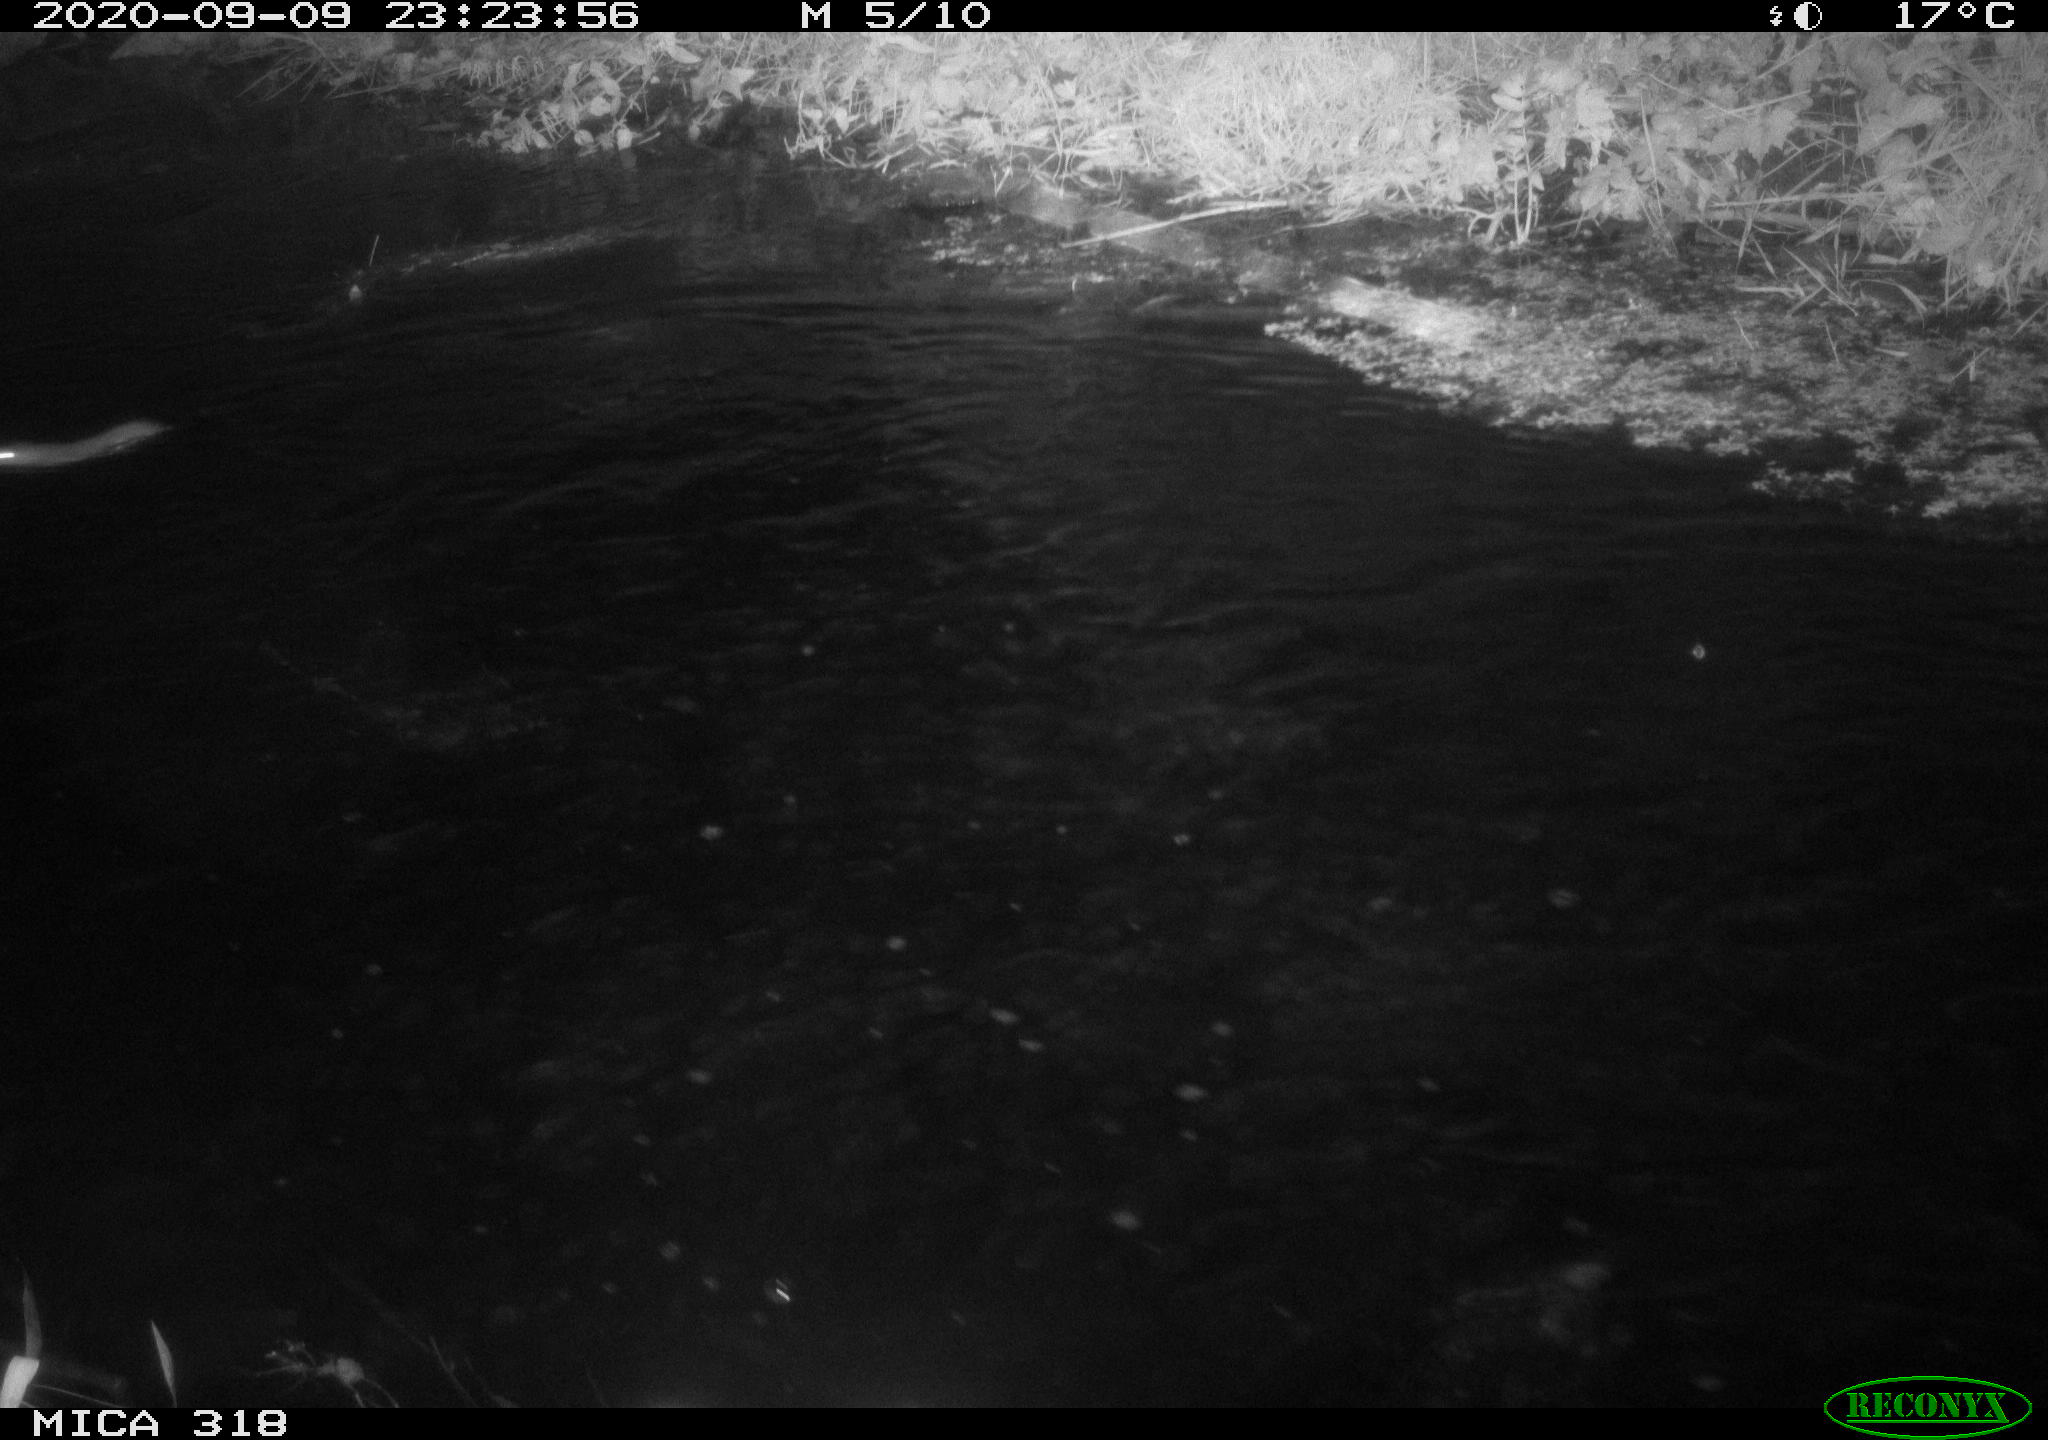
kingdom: Animalia
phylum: Chordata
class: Mammalia
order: Rodentia
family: Muridae
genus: Rattus
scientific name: Rattus norvegicus
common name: Brown rat
